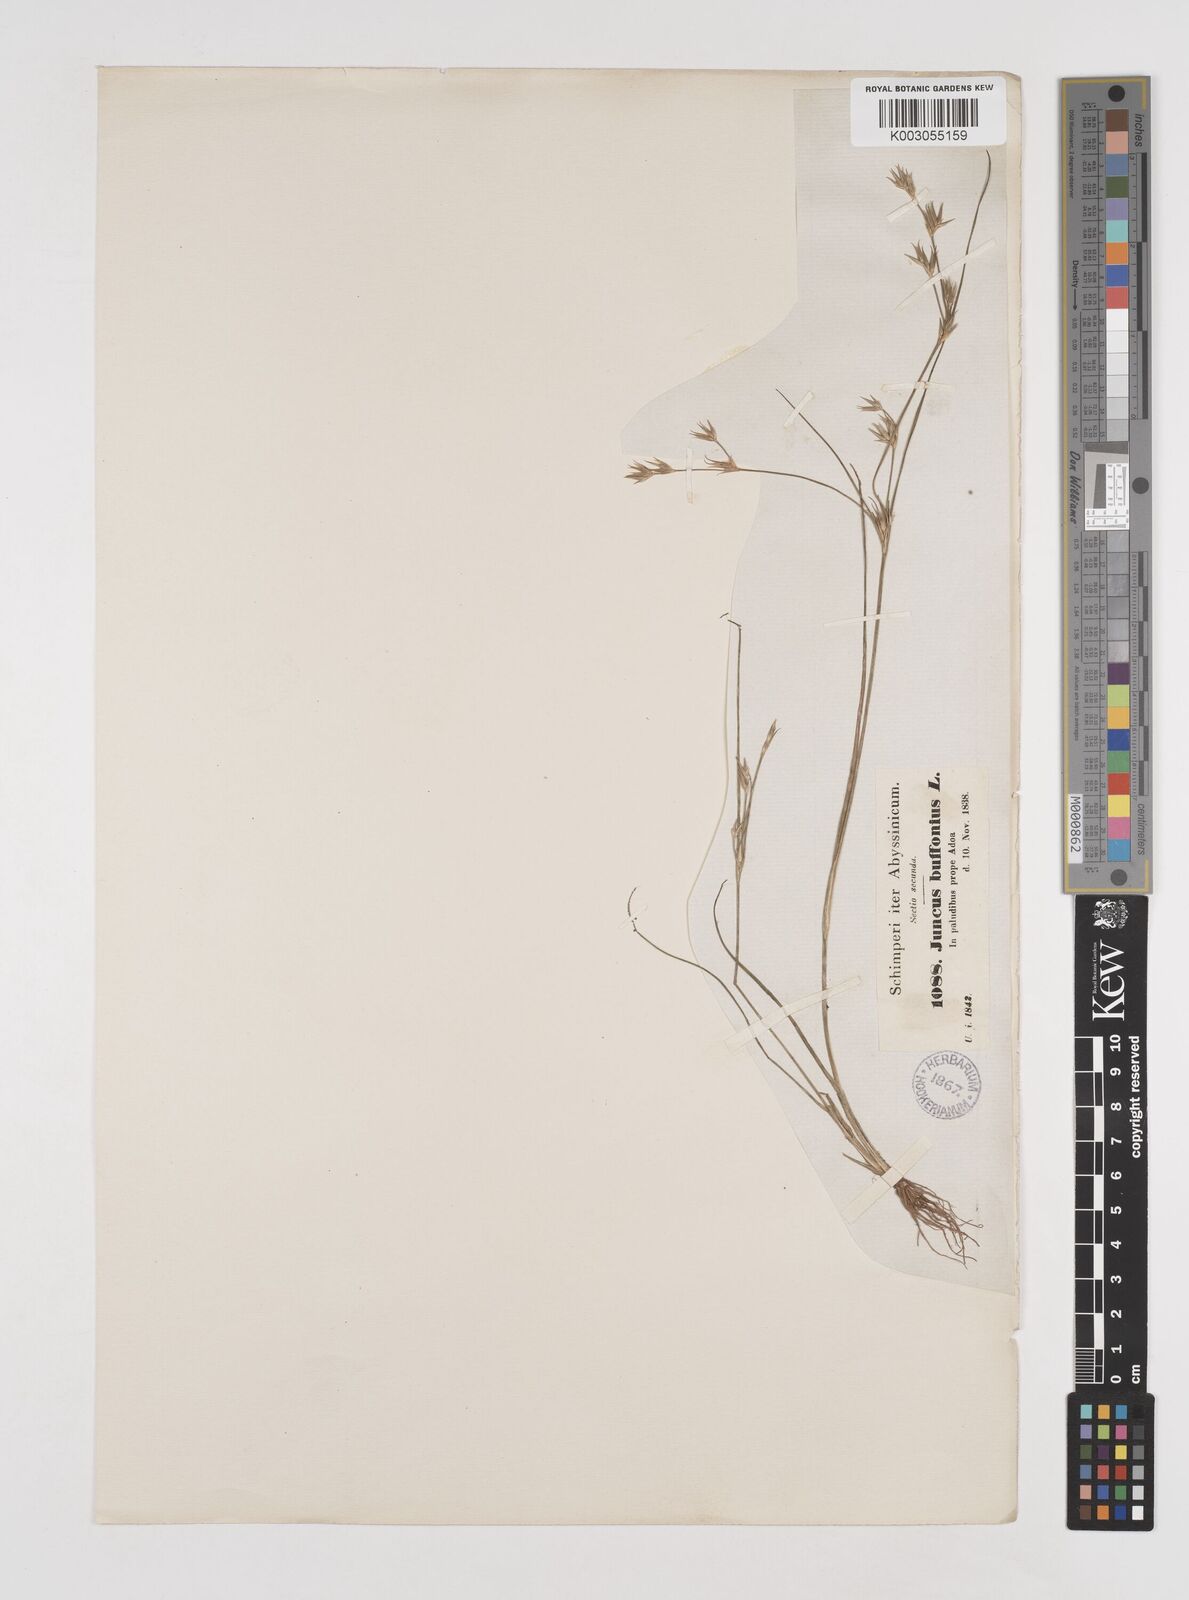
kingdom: Plantae
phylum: Tracheophyta
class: Liliopsida
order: Poales
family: Juncaceae
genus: Juncus
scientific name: Juncus bufonius
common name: Toad rush
